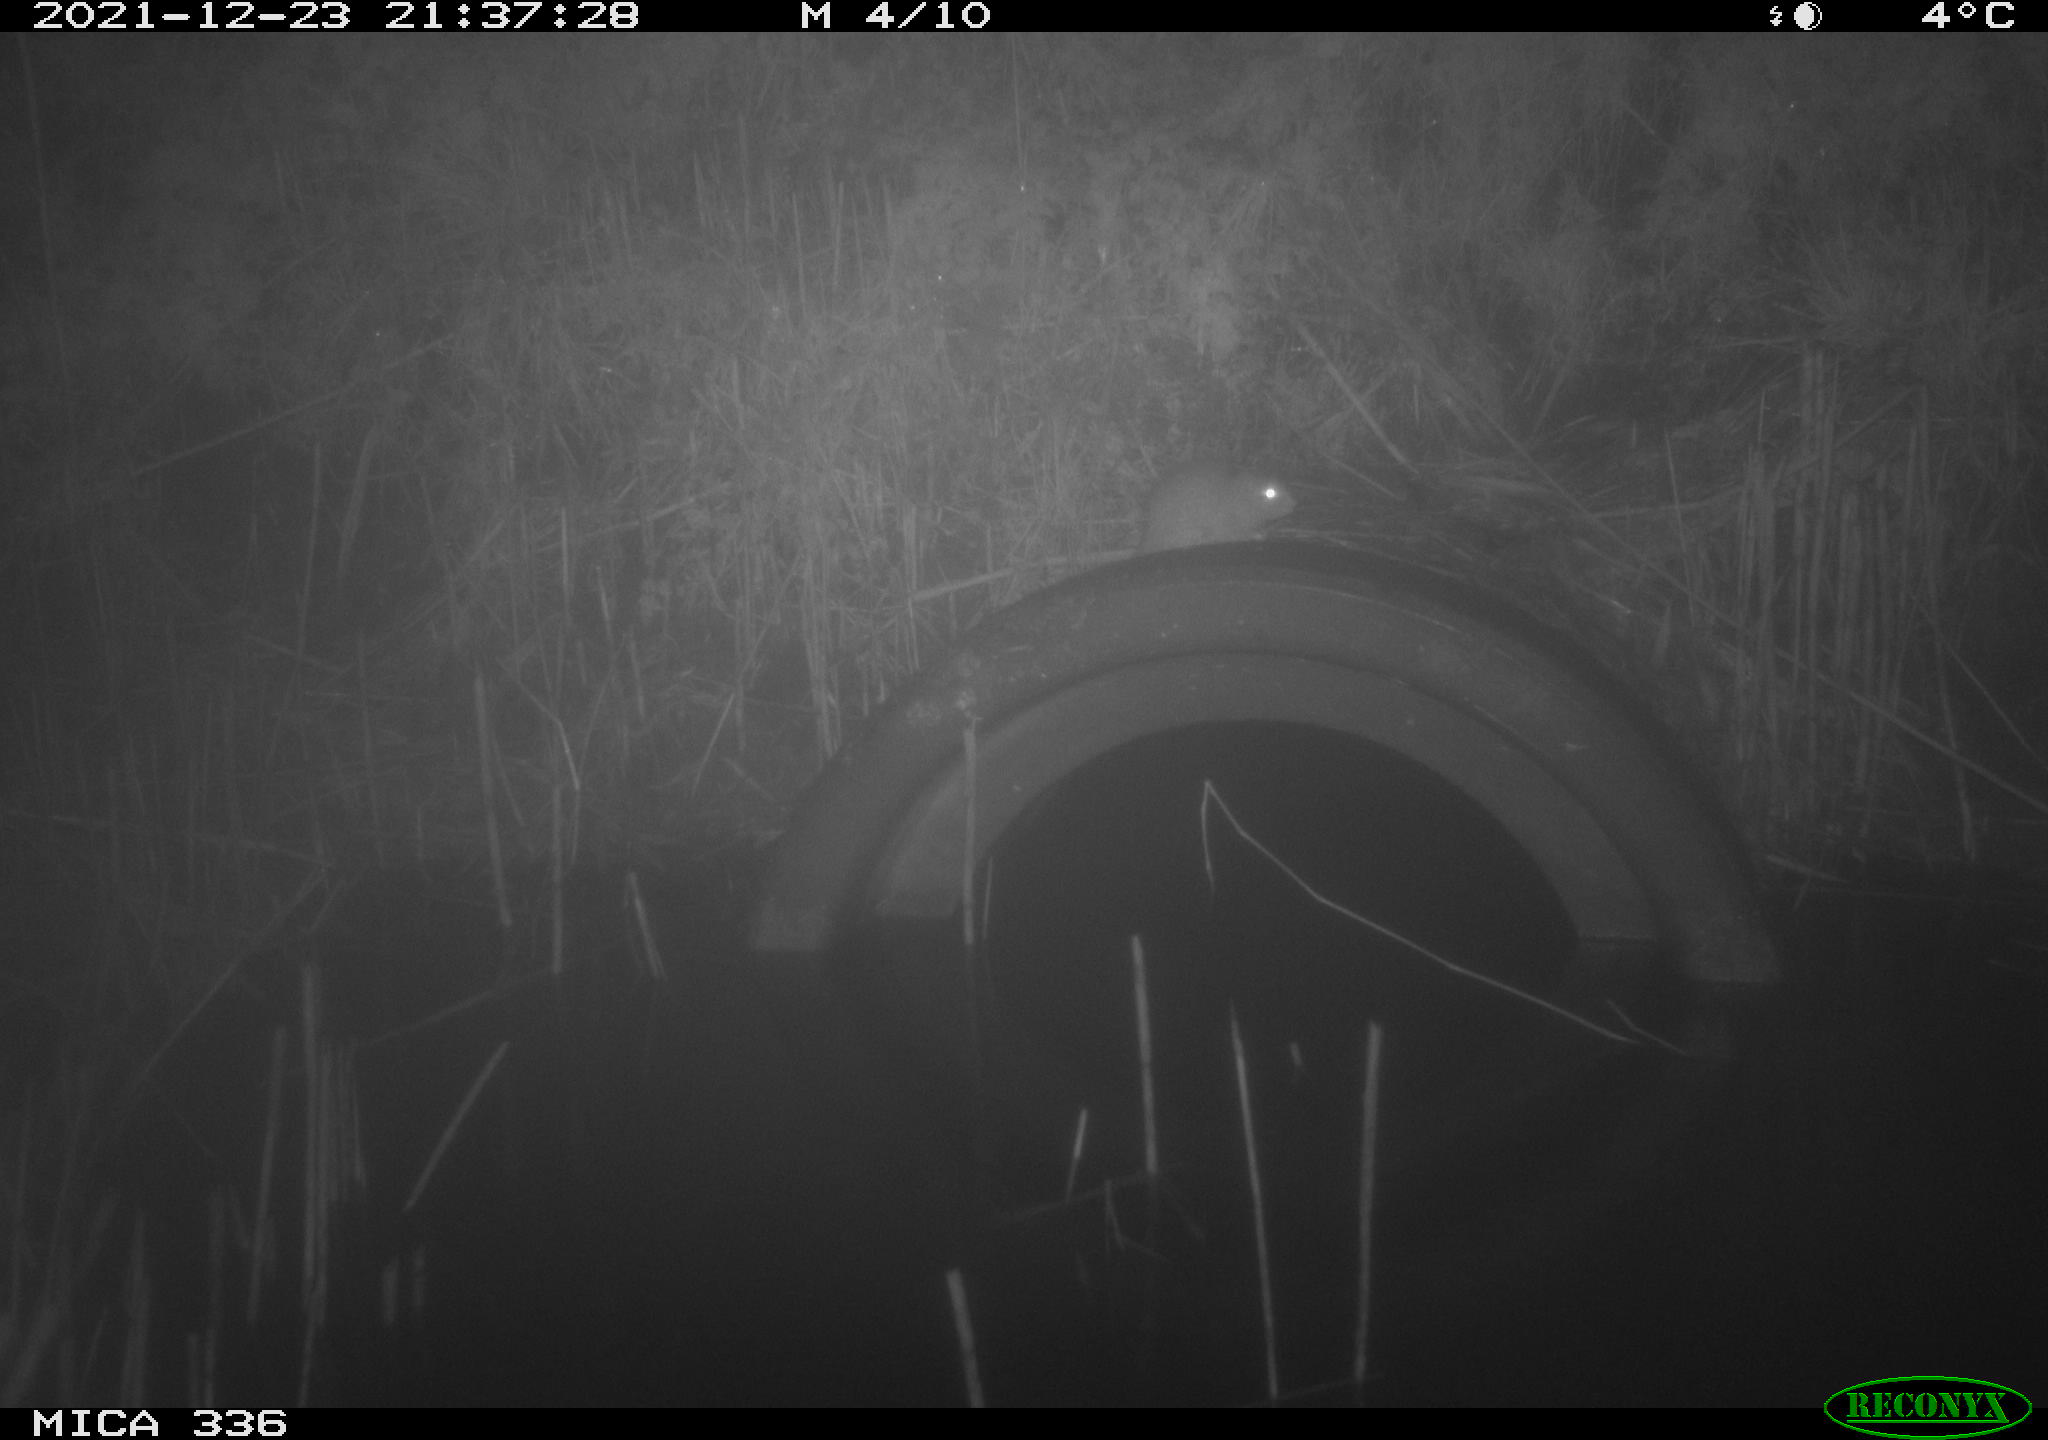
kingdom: Animalia
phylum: Chordata
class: Mammalia
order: Rodentia
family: Muridae
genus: Rattus
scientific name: Rattus norvegicus
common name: Brown rat
